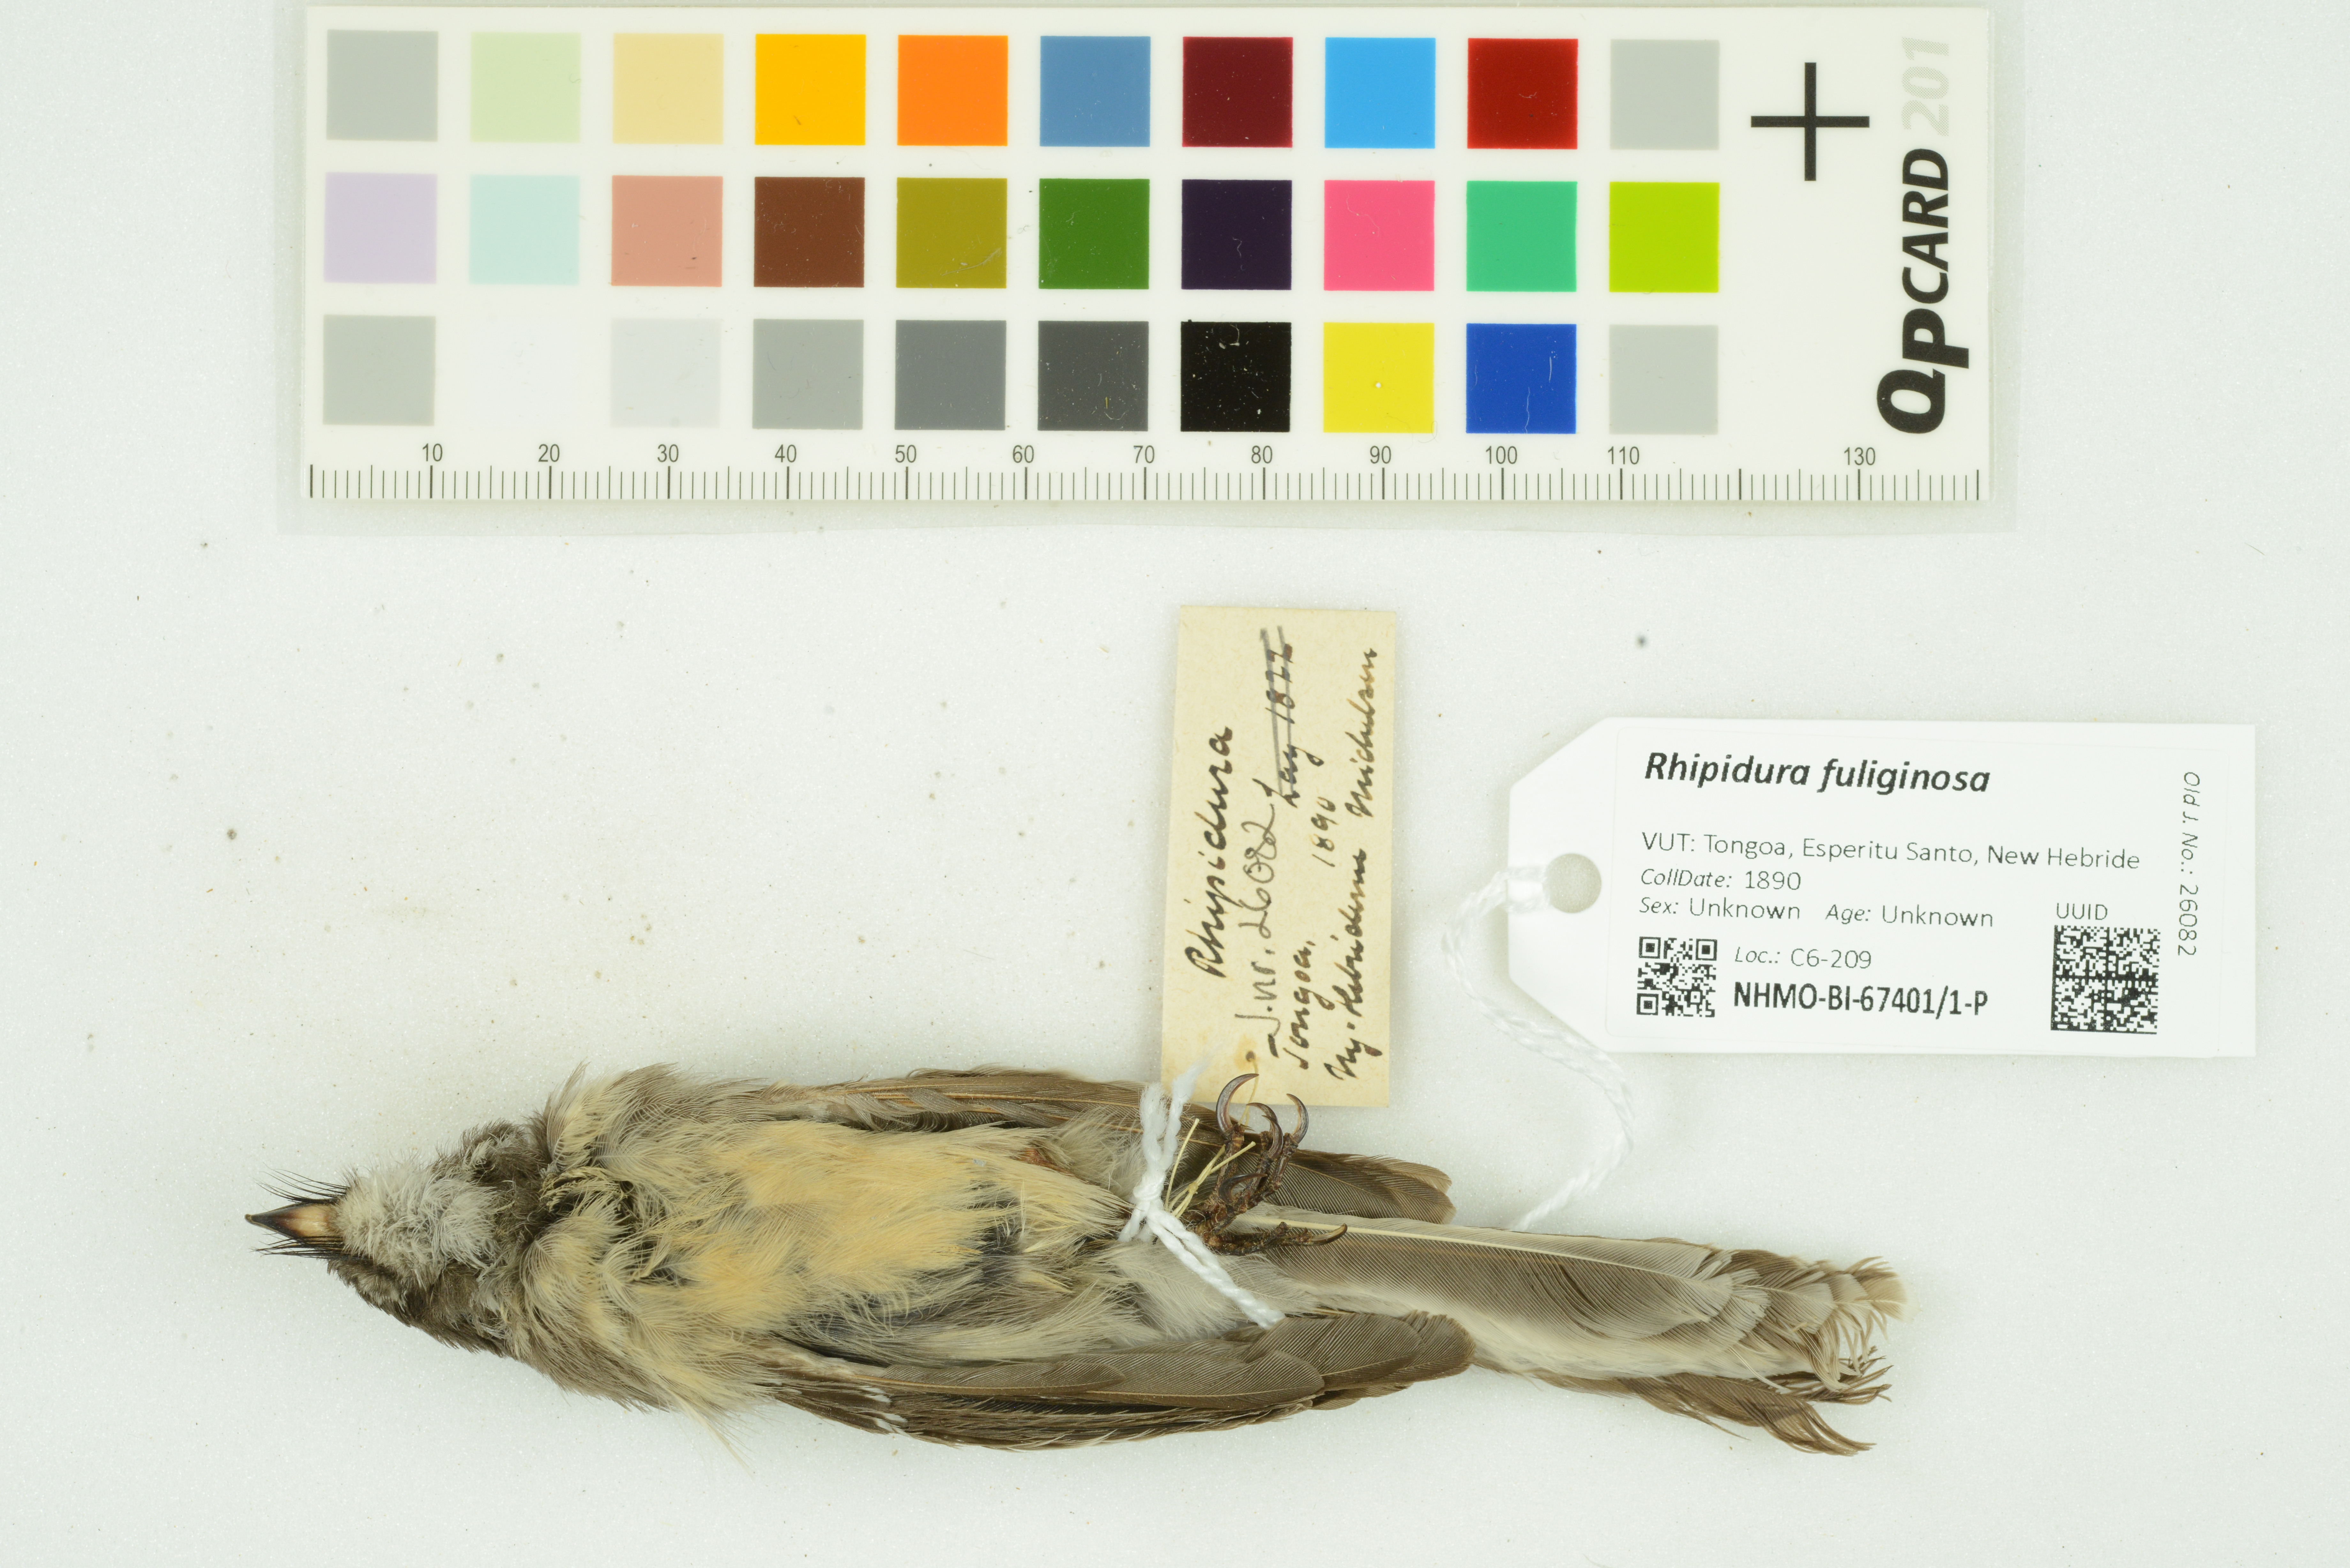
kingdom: Animalia
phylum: Chordata
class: Aves
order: Passeriformes
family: Rhipiduridae
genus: Rhipidura
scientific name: Rhipidura albiscapa
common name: Grey fantail
